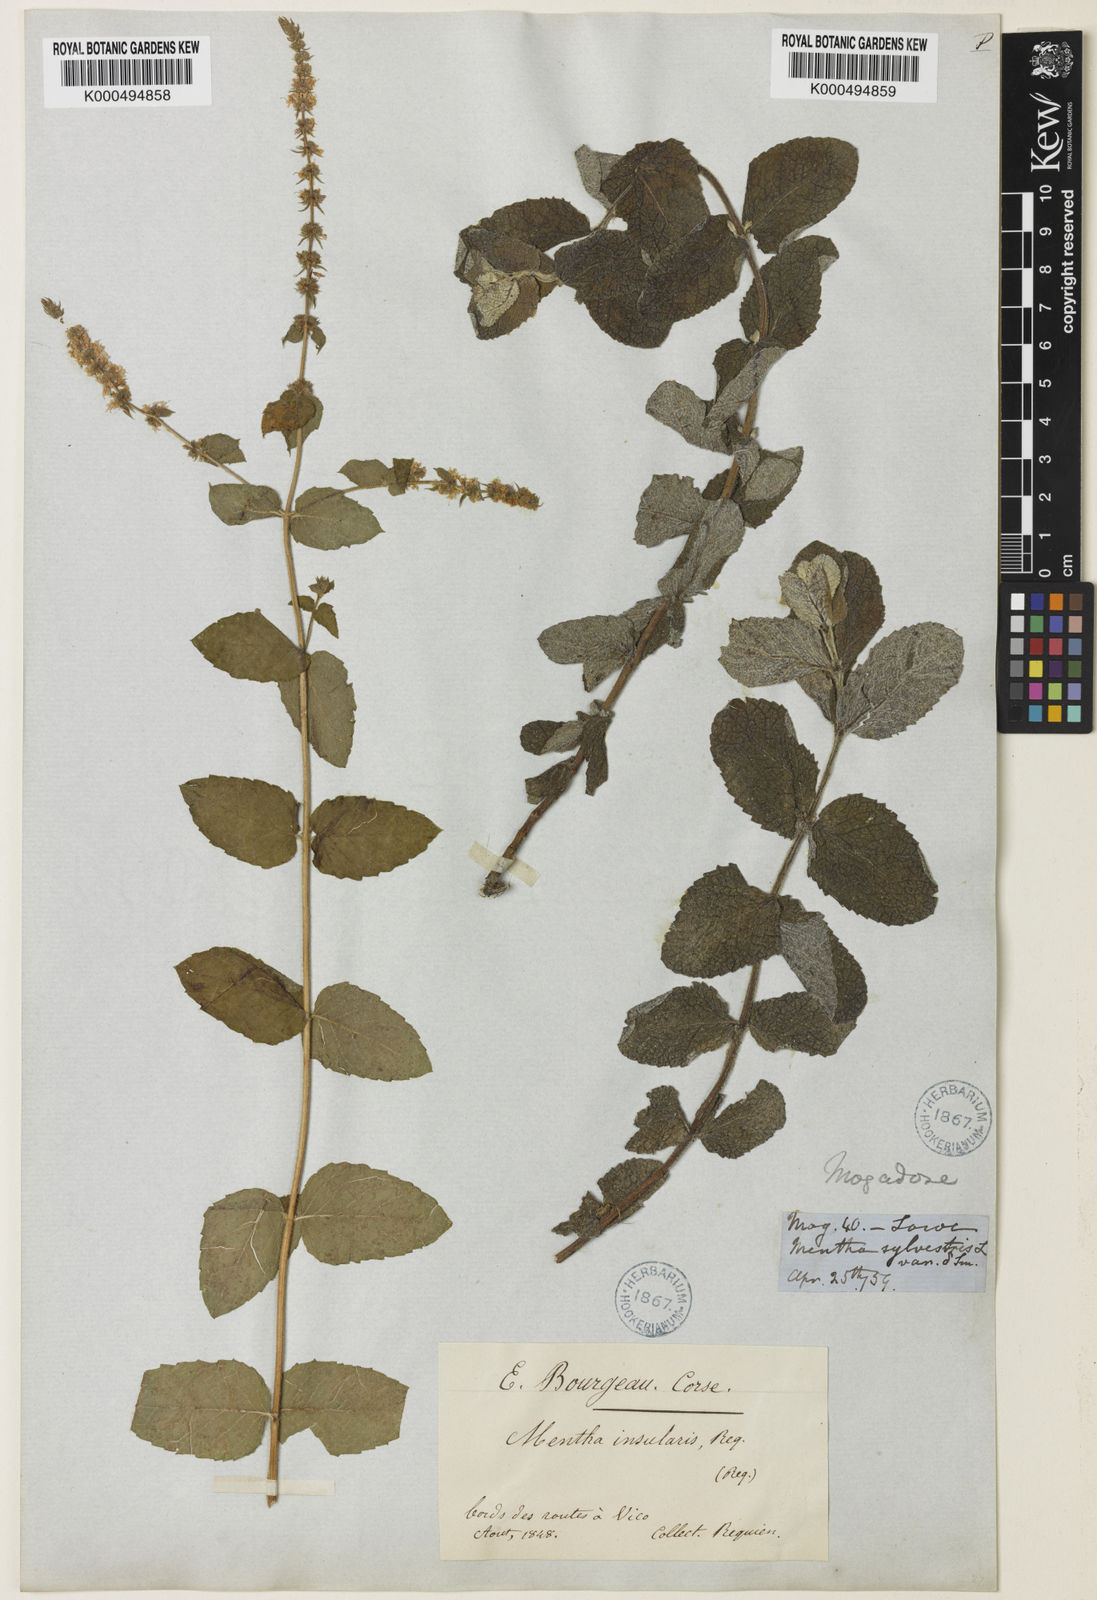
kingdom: Plantae
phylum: Tracheophyta
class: Magnoliopsida
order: Lamiales
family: Lamiaceae
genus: Mentha
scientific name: Mentha suaveolens
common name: Apple mint
